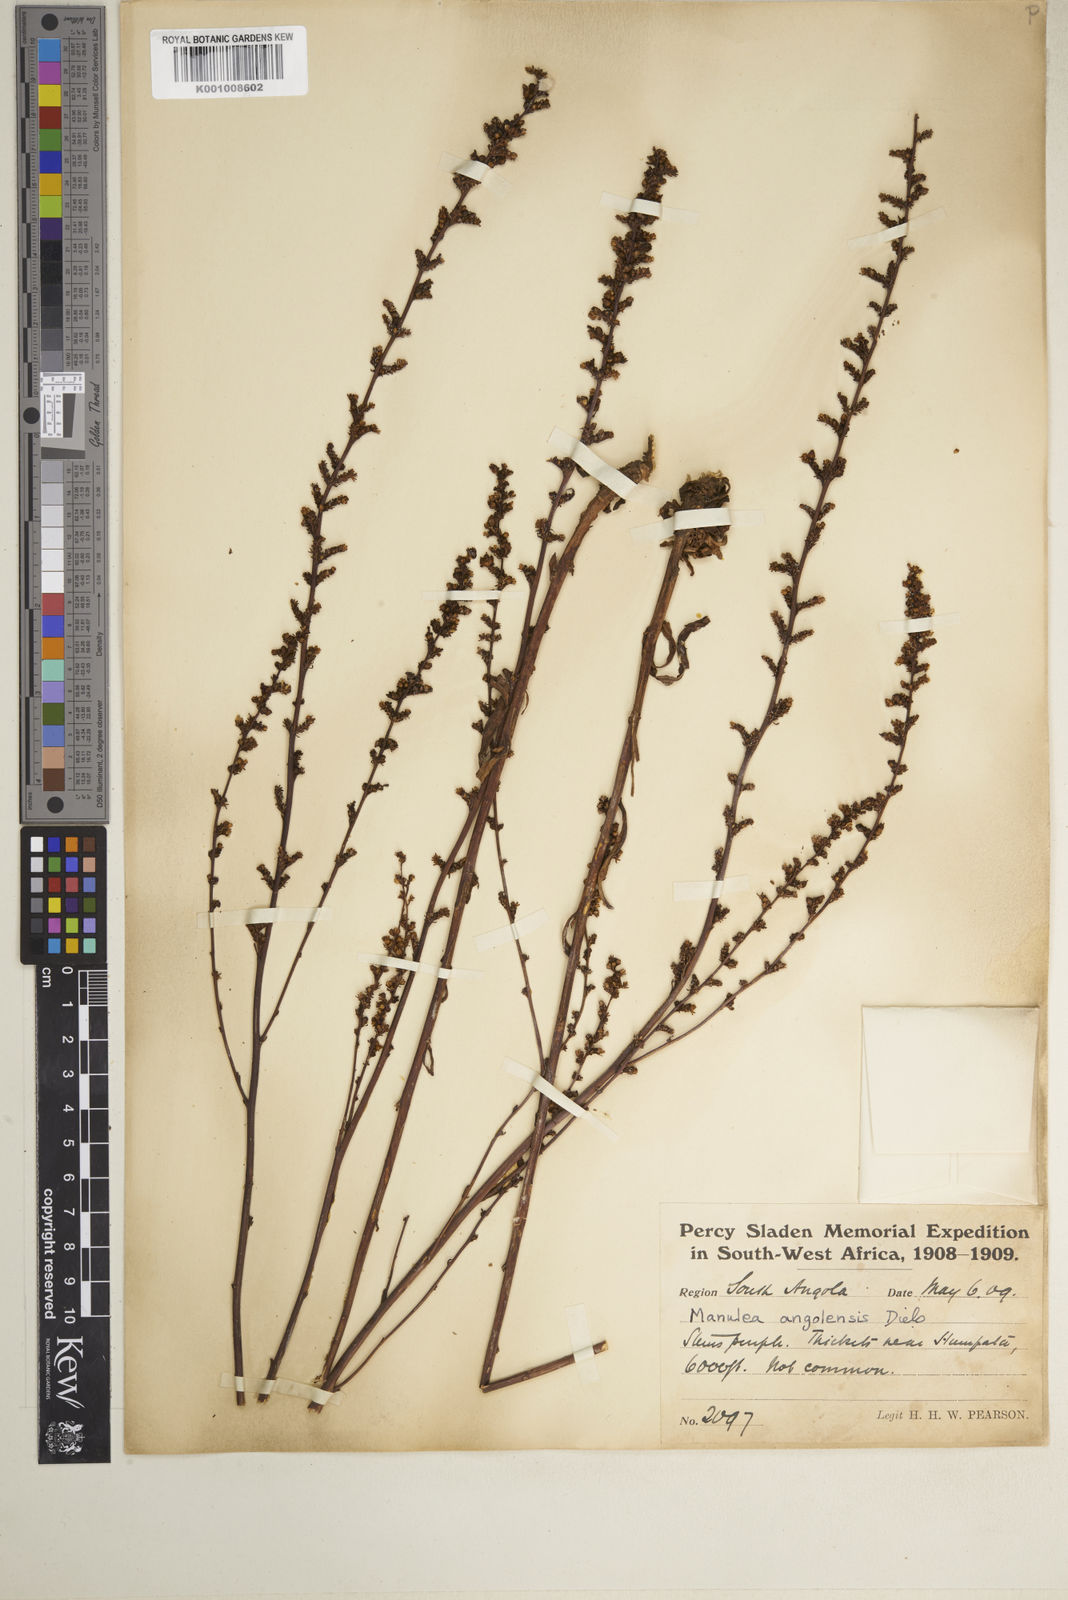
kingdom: Plantae
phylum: Tracheophyta
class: Magnoliopsida
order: Lamiales
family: Scrophulariaceae
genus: Manulea
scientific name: Manulea parviflora
